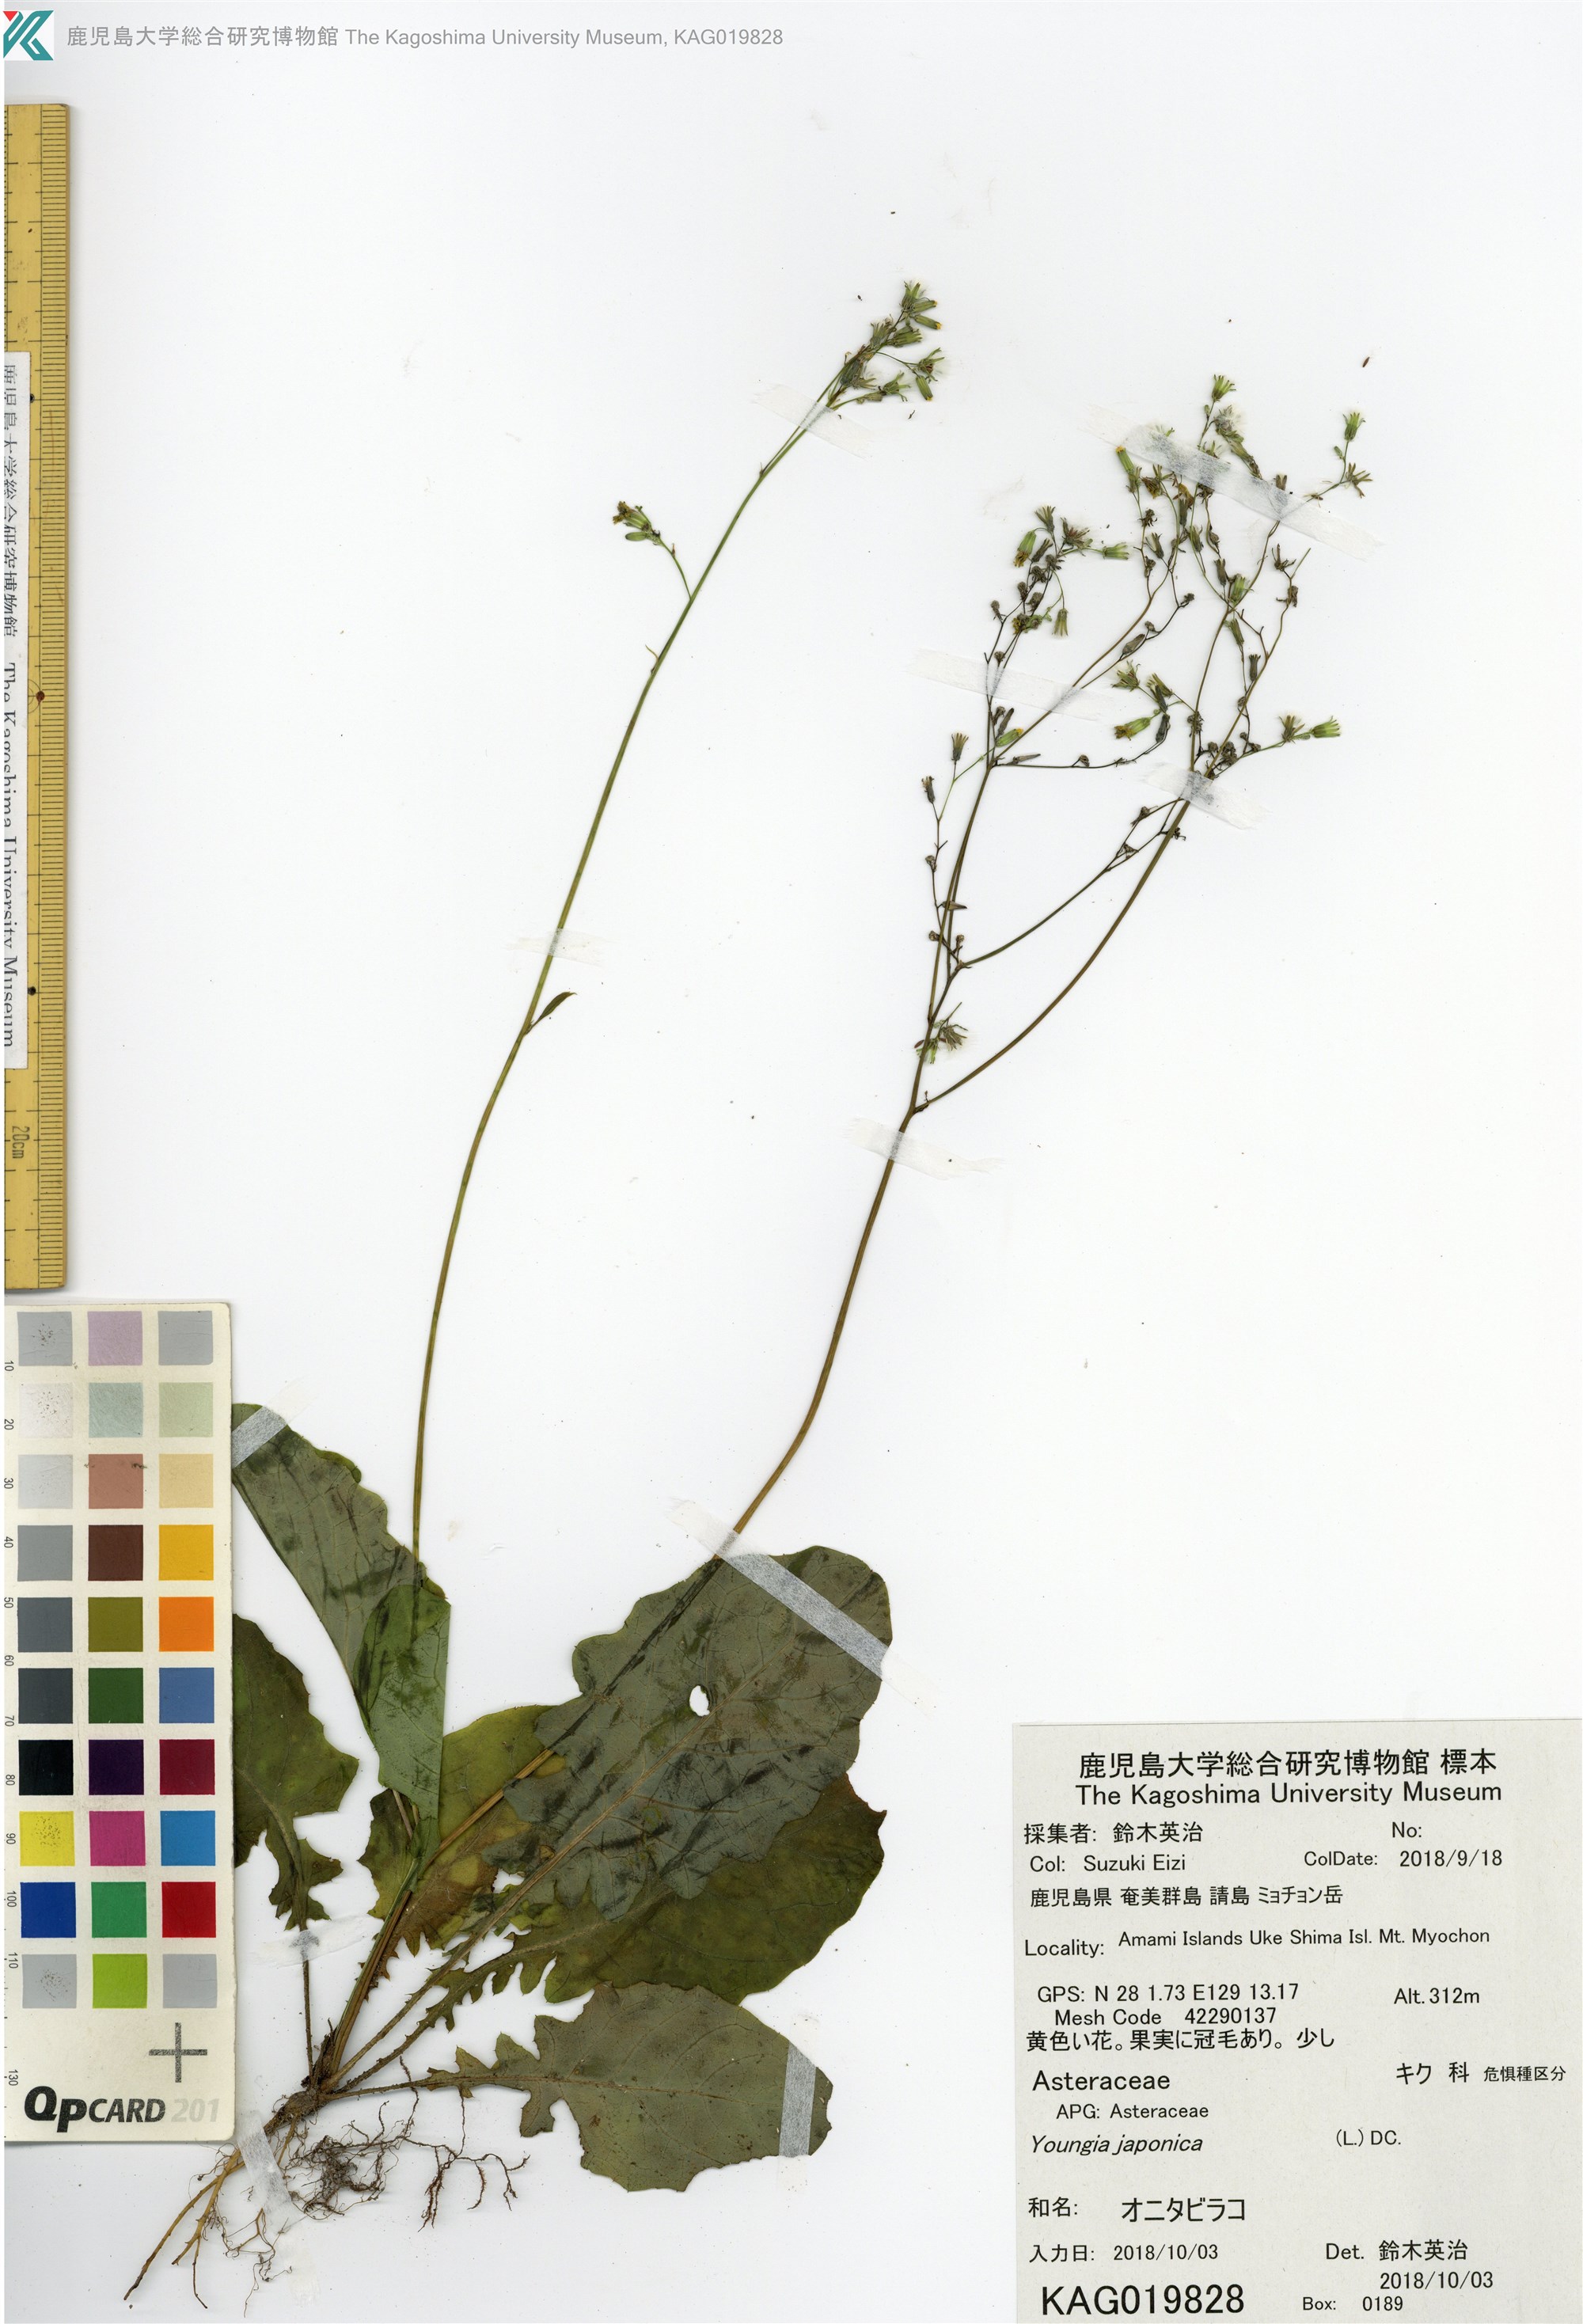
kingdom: Plantae
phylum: Tracheophyta
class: Magnoliopsida
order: Asterales
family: Asteraceae
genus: Youngia
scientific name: Youngia japonica
